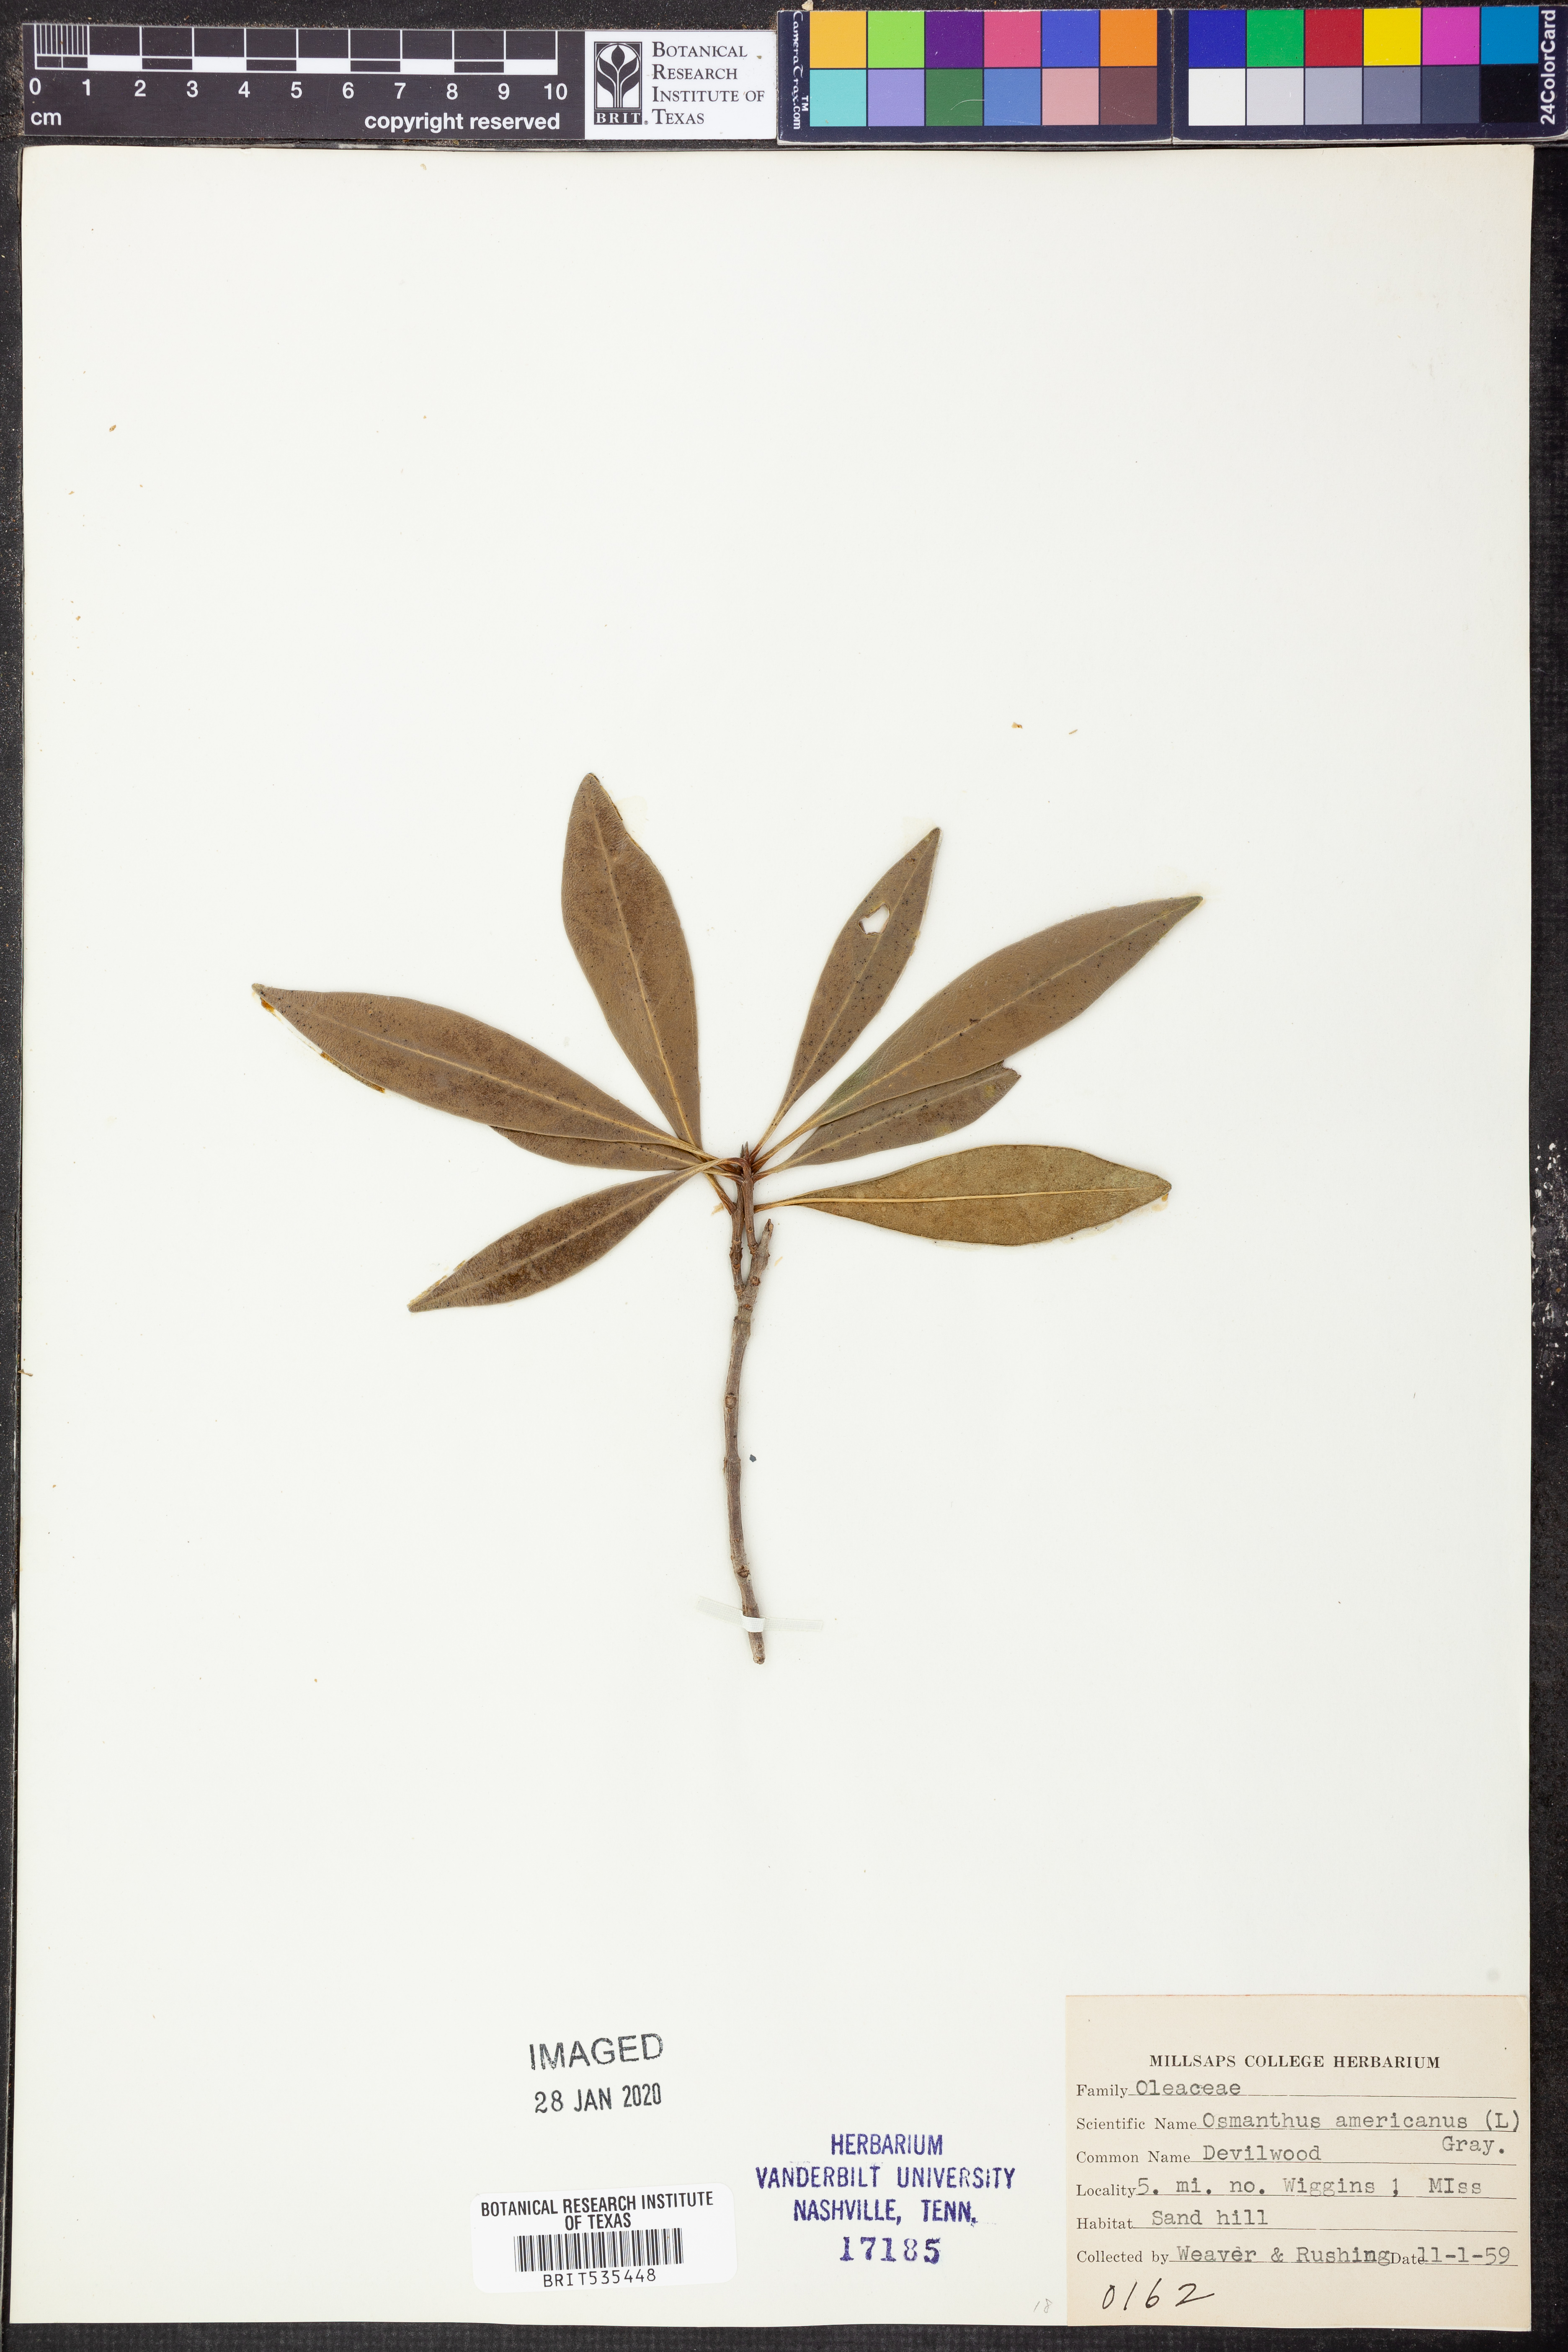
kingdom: Plantae
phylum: Tracheophyta
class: Magnoliopsida
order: Lamiales
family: Oleaceae
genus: Osmanthus
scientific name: Osmanthus americanus
